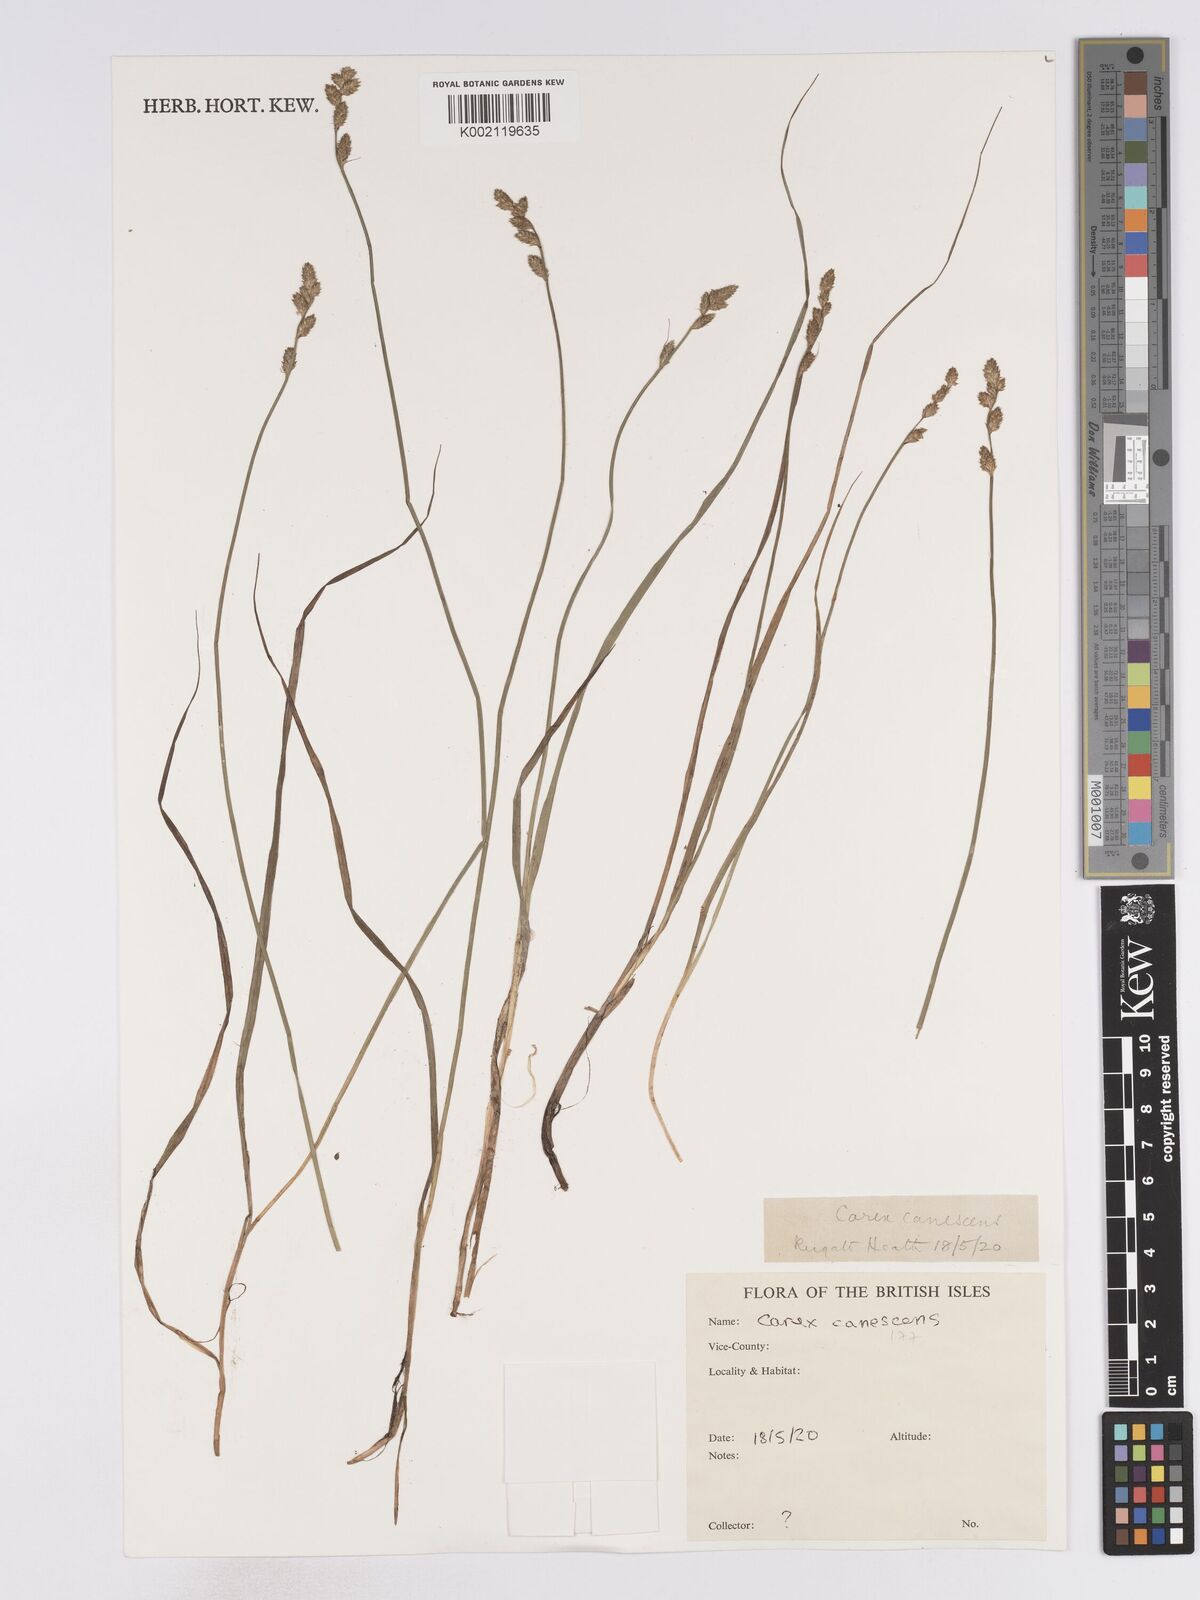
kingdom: Plantae
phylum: Tracheophyta
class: Liliopsida
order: Poales
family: Cyperaceae
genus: Carex
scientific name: Carex curta
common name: White sedge
